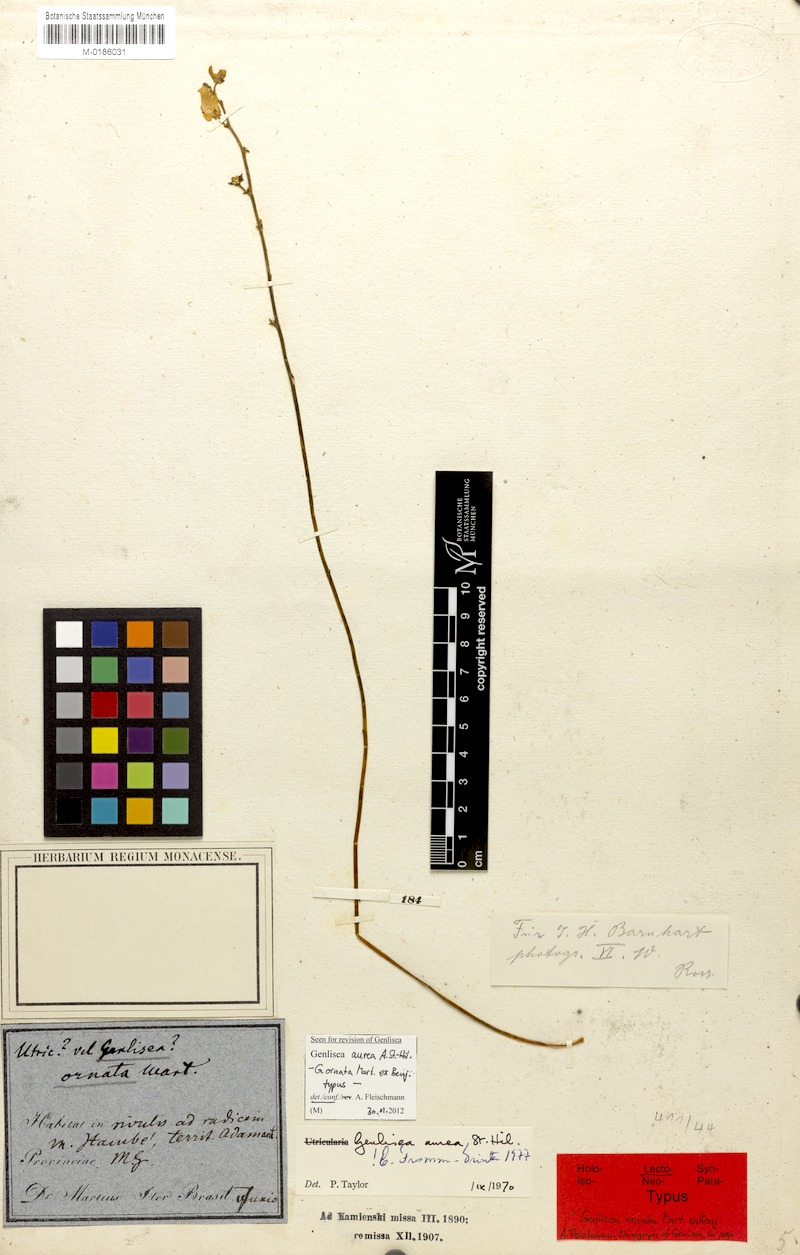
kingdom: Plantae
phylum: Tracheophyta
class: Magnoliopsida
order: Lamiales
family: Lentibulariaceae
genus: Genlisea
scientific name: Genlisea aurea
